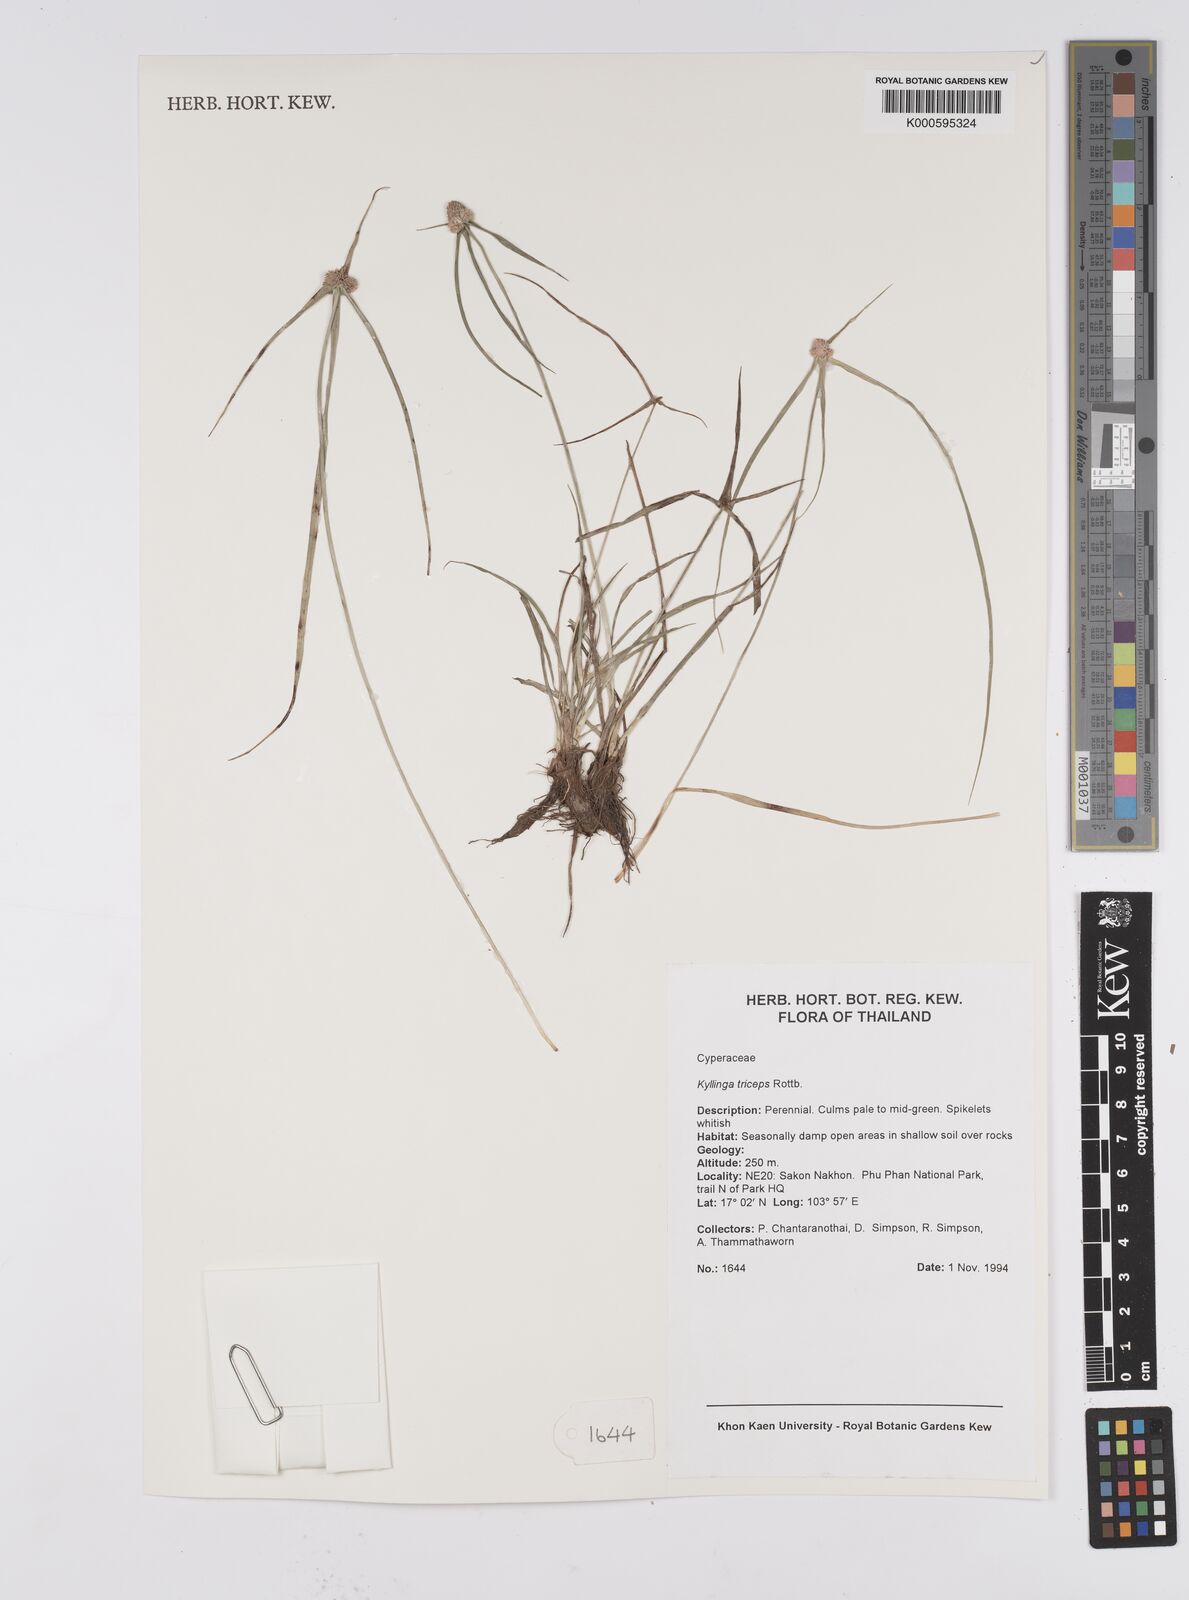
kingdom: Plantae
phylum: Tracheophyta
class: Liliopsida
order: Poales
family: Cyperaceae
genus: Cyperus
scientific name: Cyperus dubius
